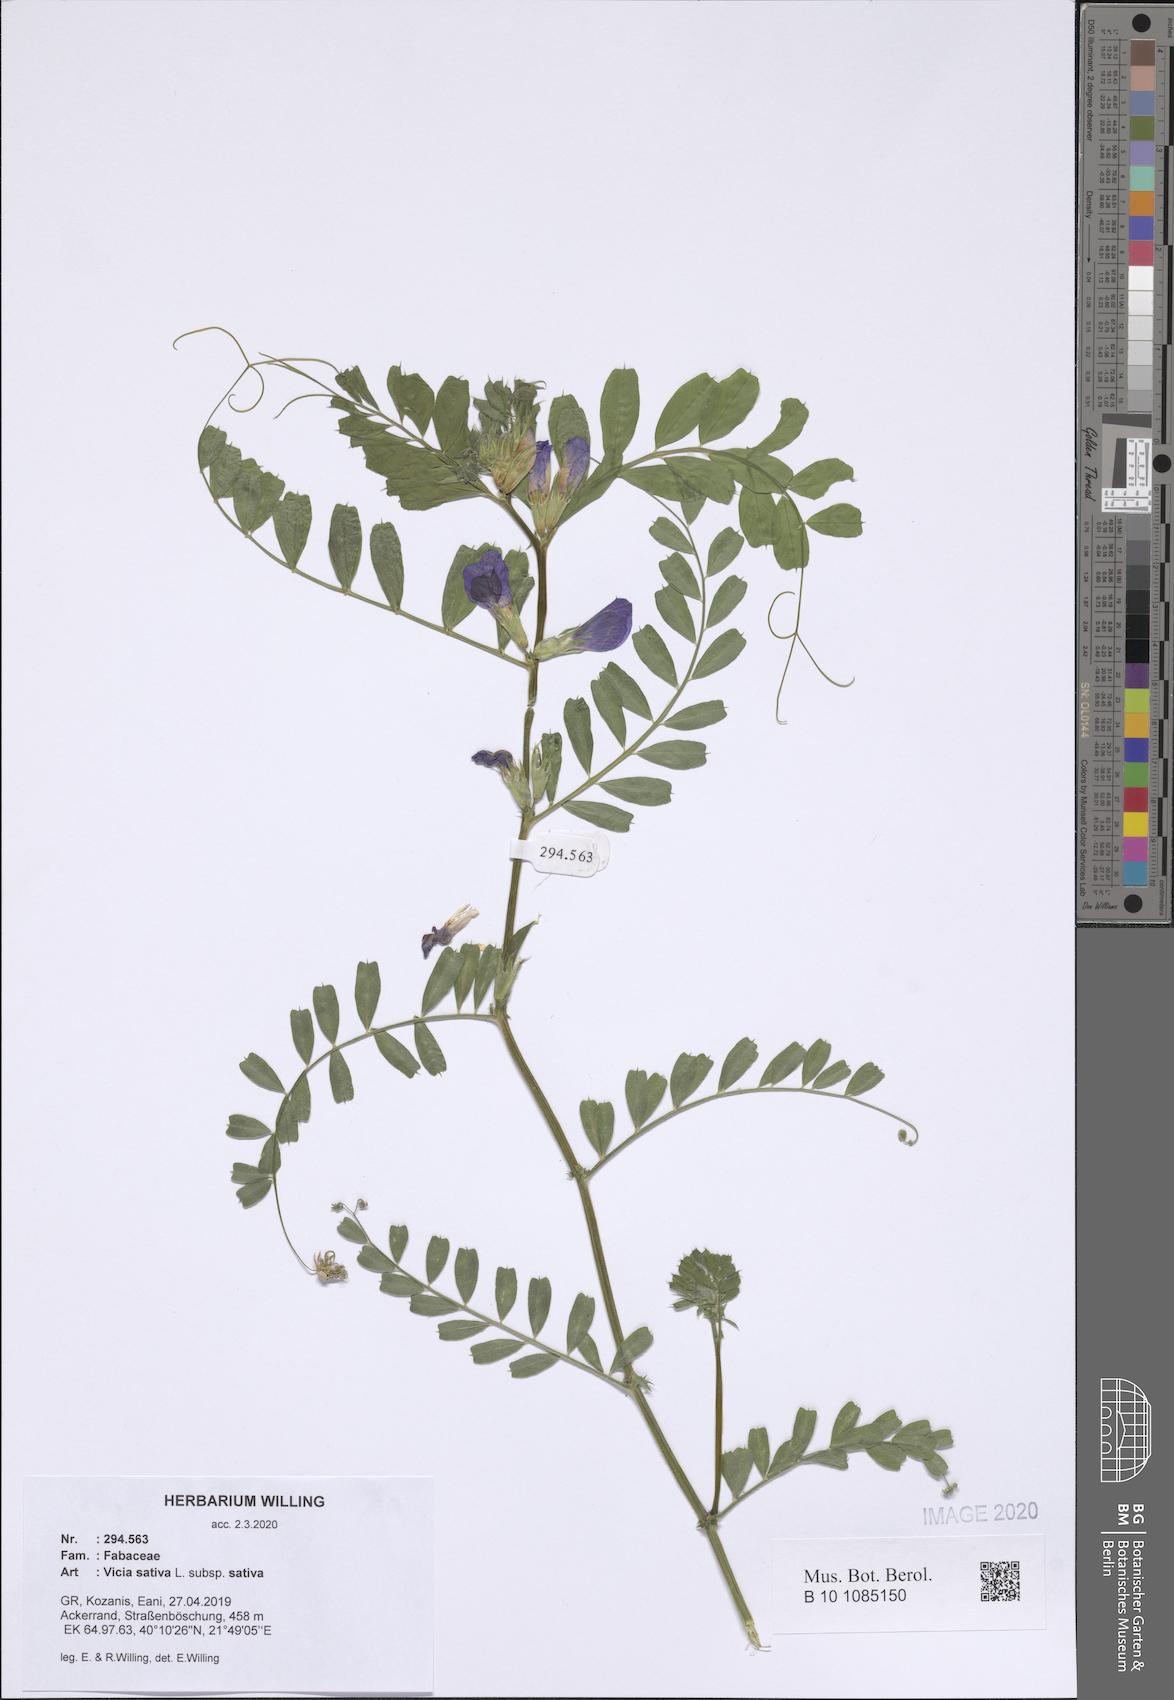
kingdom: Plantae
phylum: Tracheophyta
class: Magnoliopsida
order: Fabales
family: Fabaceae
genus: Vicia
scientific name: Vicia sativa
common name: Garden vetch
